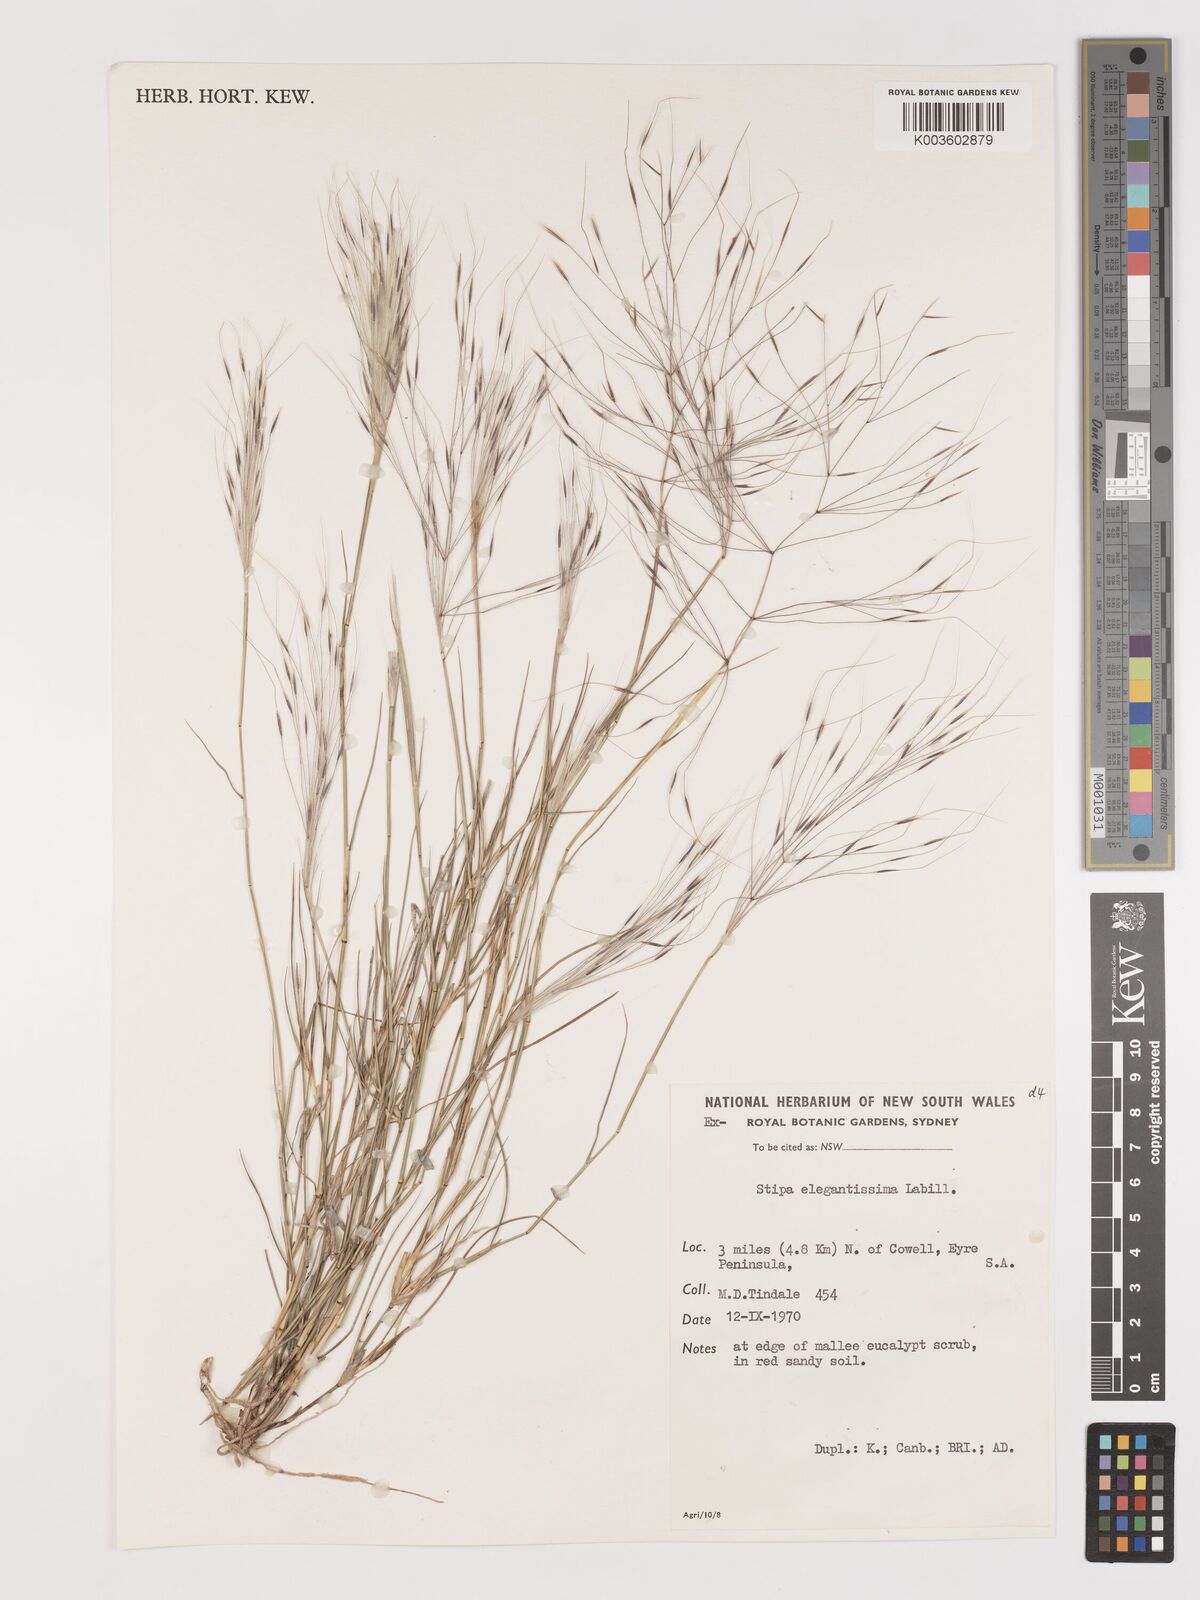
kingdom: Plantae
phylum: Tracheophyta
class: Liliopsida
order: Poales
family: Poaceae
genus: Austrostipa
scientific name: Austrostipa elegantissima
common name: Feather spear grass
